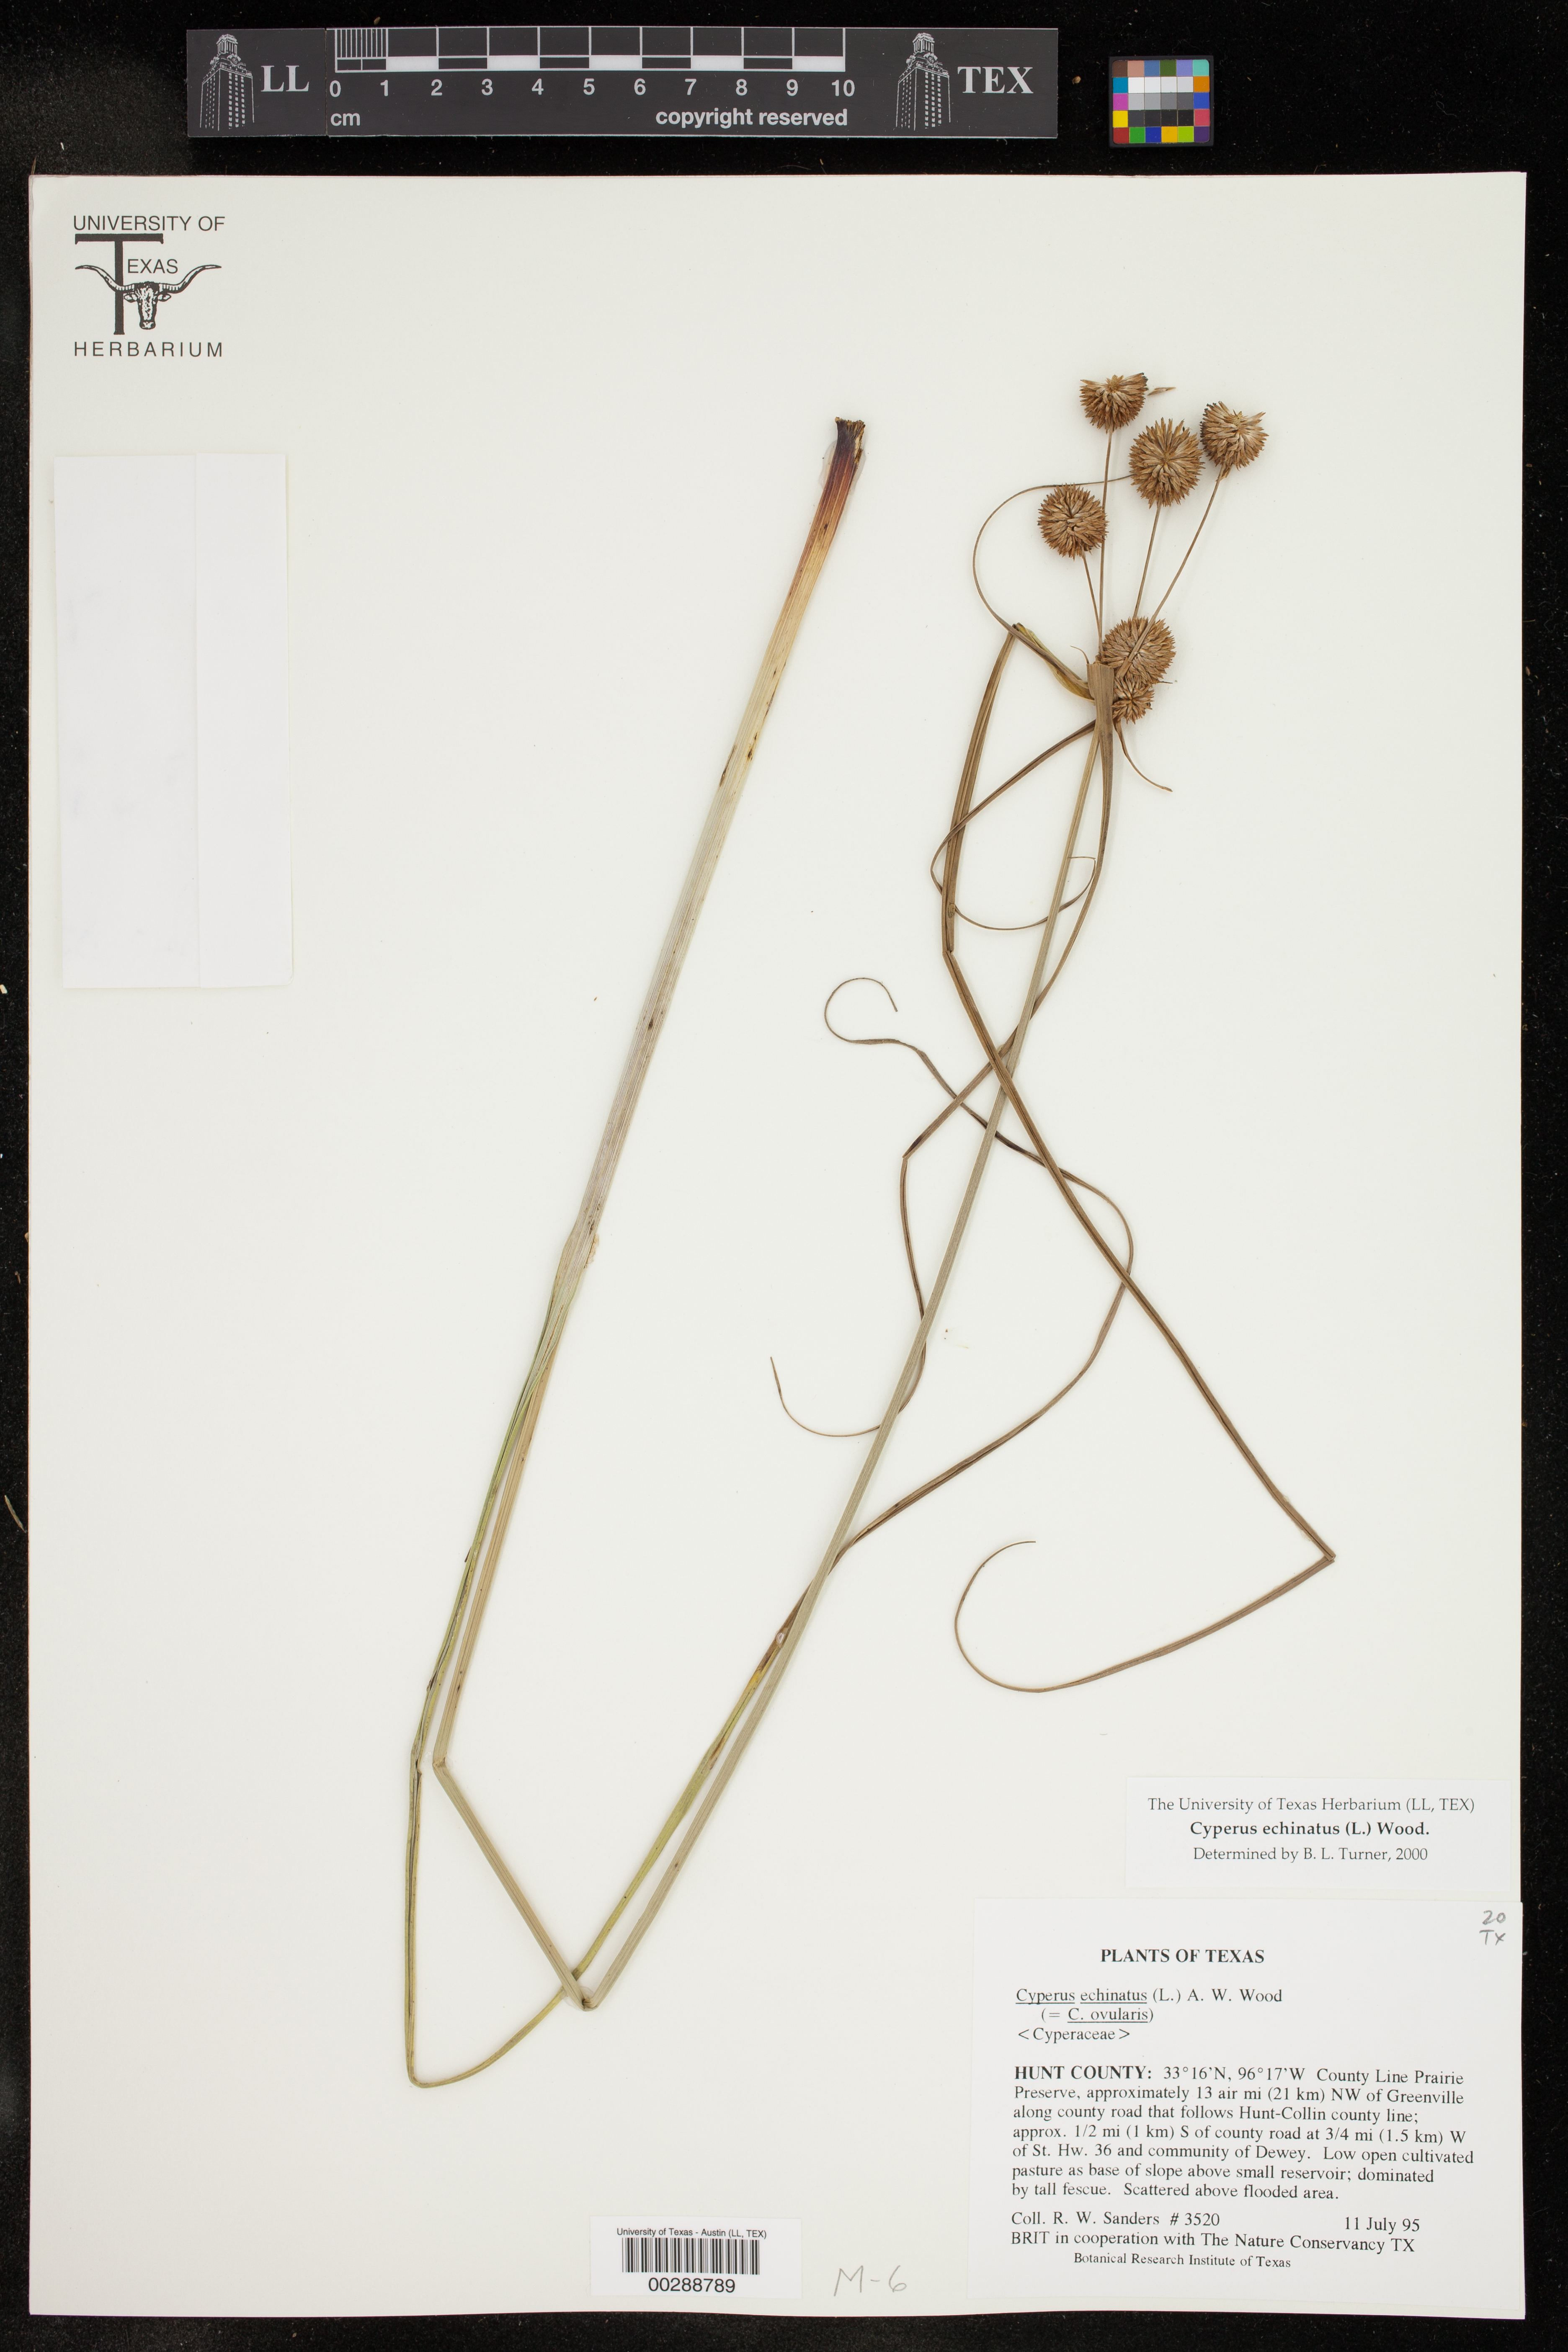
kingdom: Plantae
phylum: Tracheophyta
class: Liliopsida
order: Poales
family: Cyperaceae
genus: Cyperus
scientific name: Cyperus echinatus
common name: Teasel sedge
